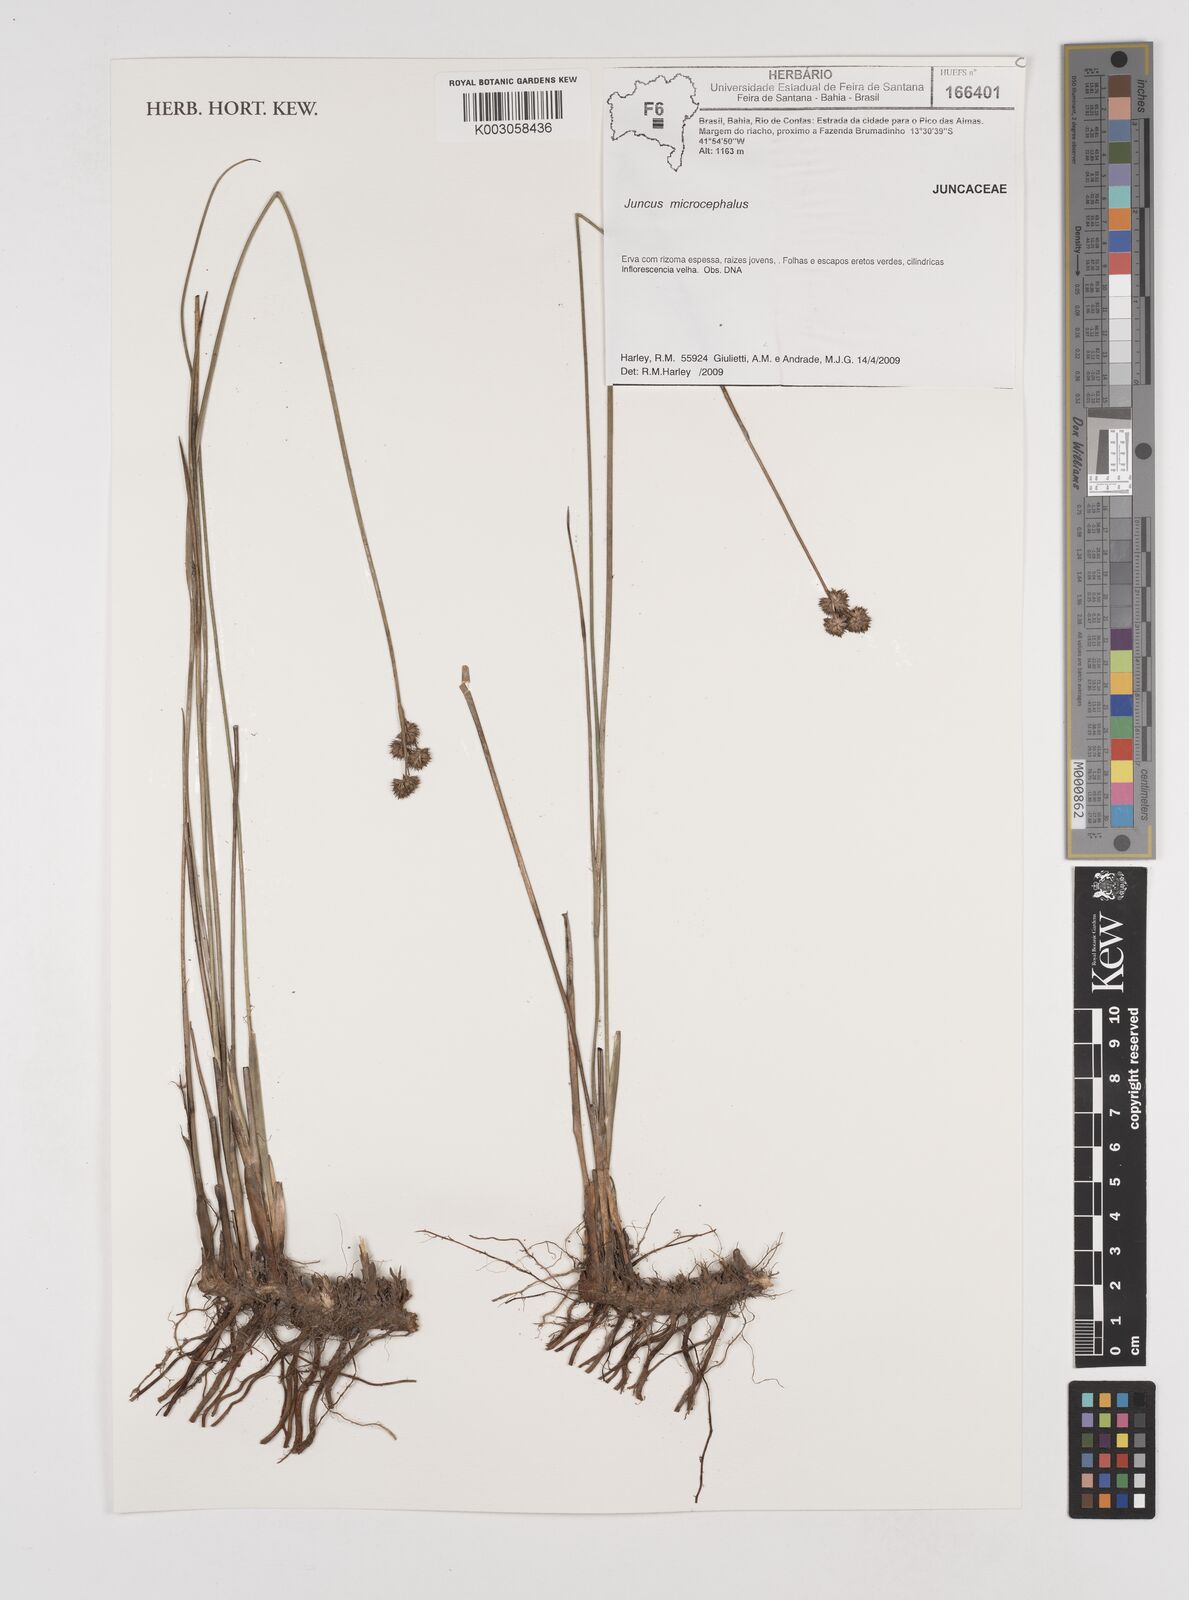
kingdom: Plantae
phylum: Tracheophyta
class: Liliopsida
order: Poales
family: Juncaceae
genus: Juncus
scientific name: Juncus microcephalus
